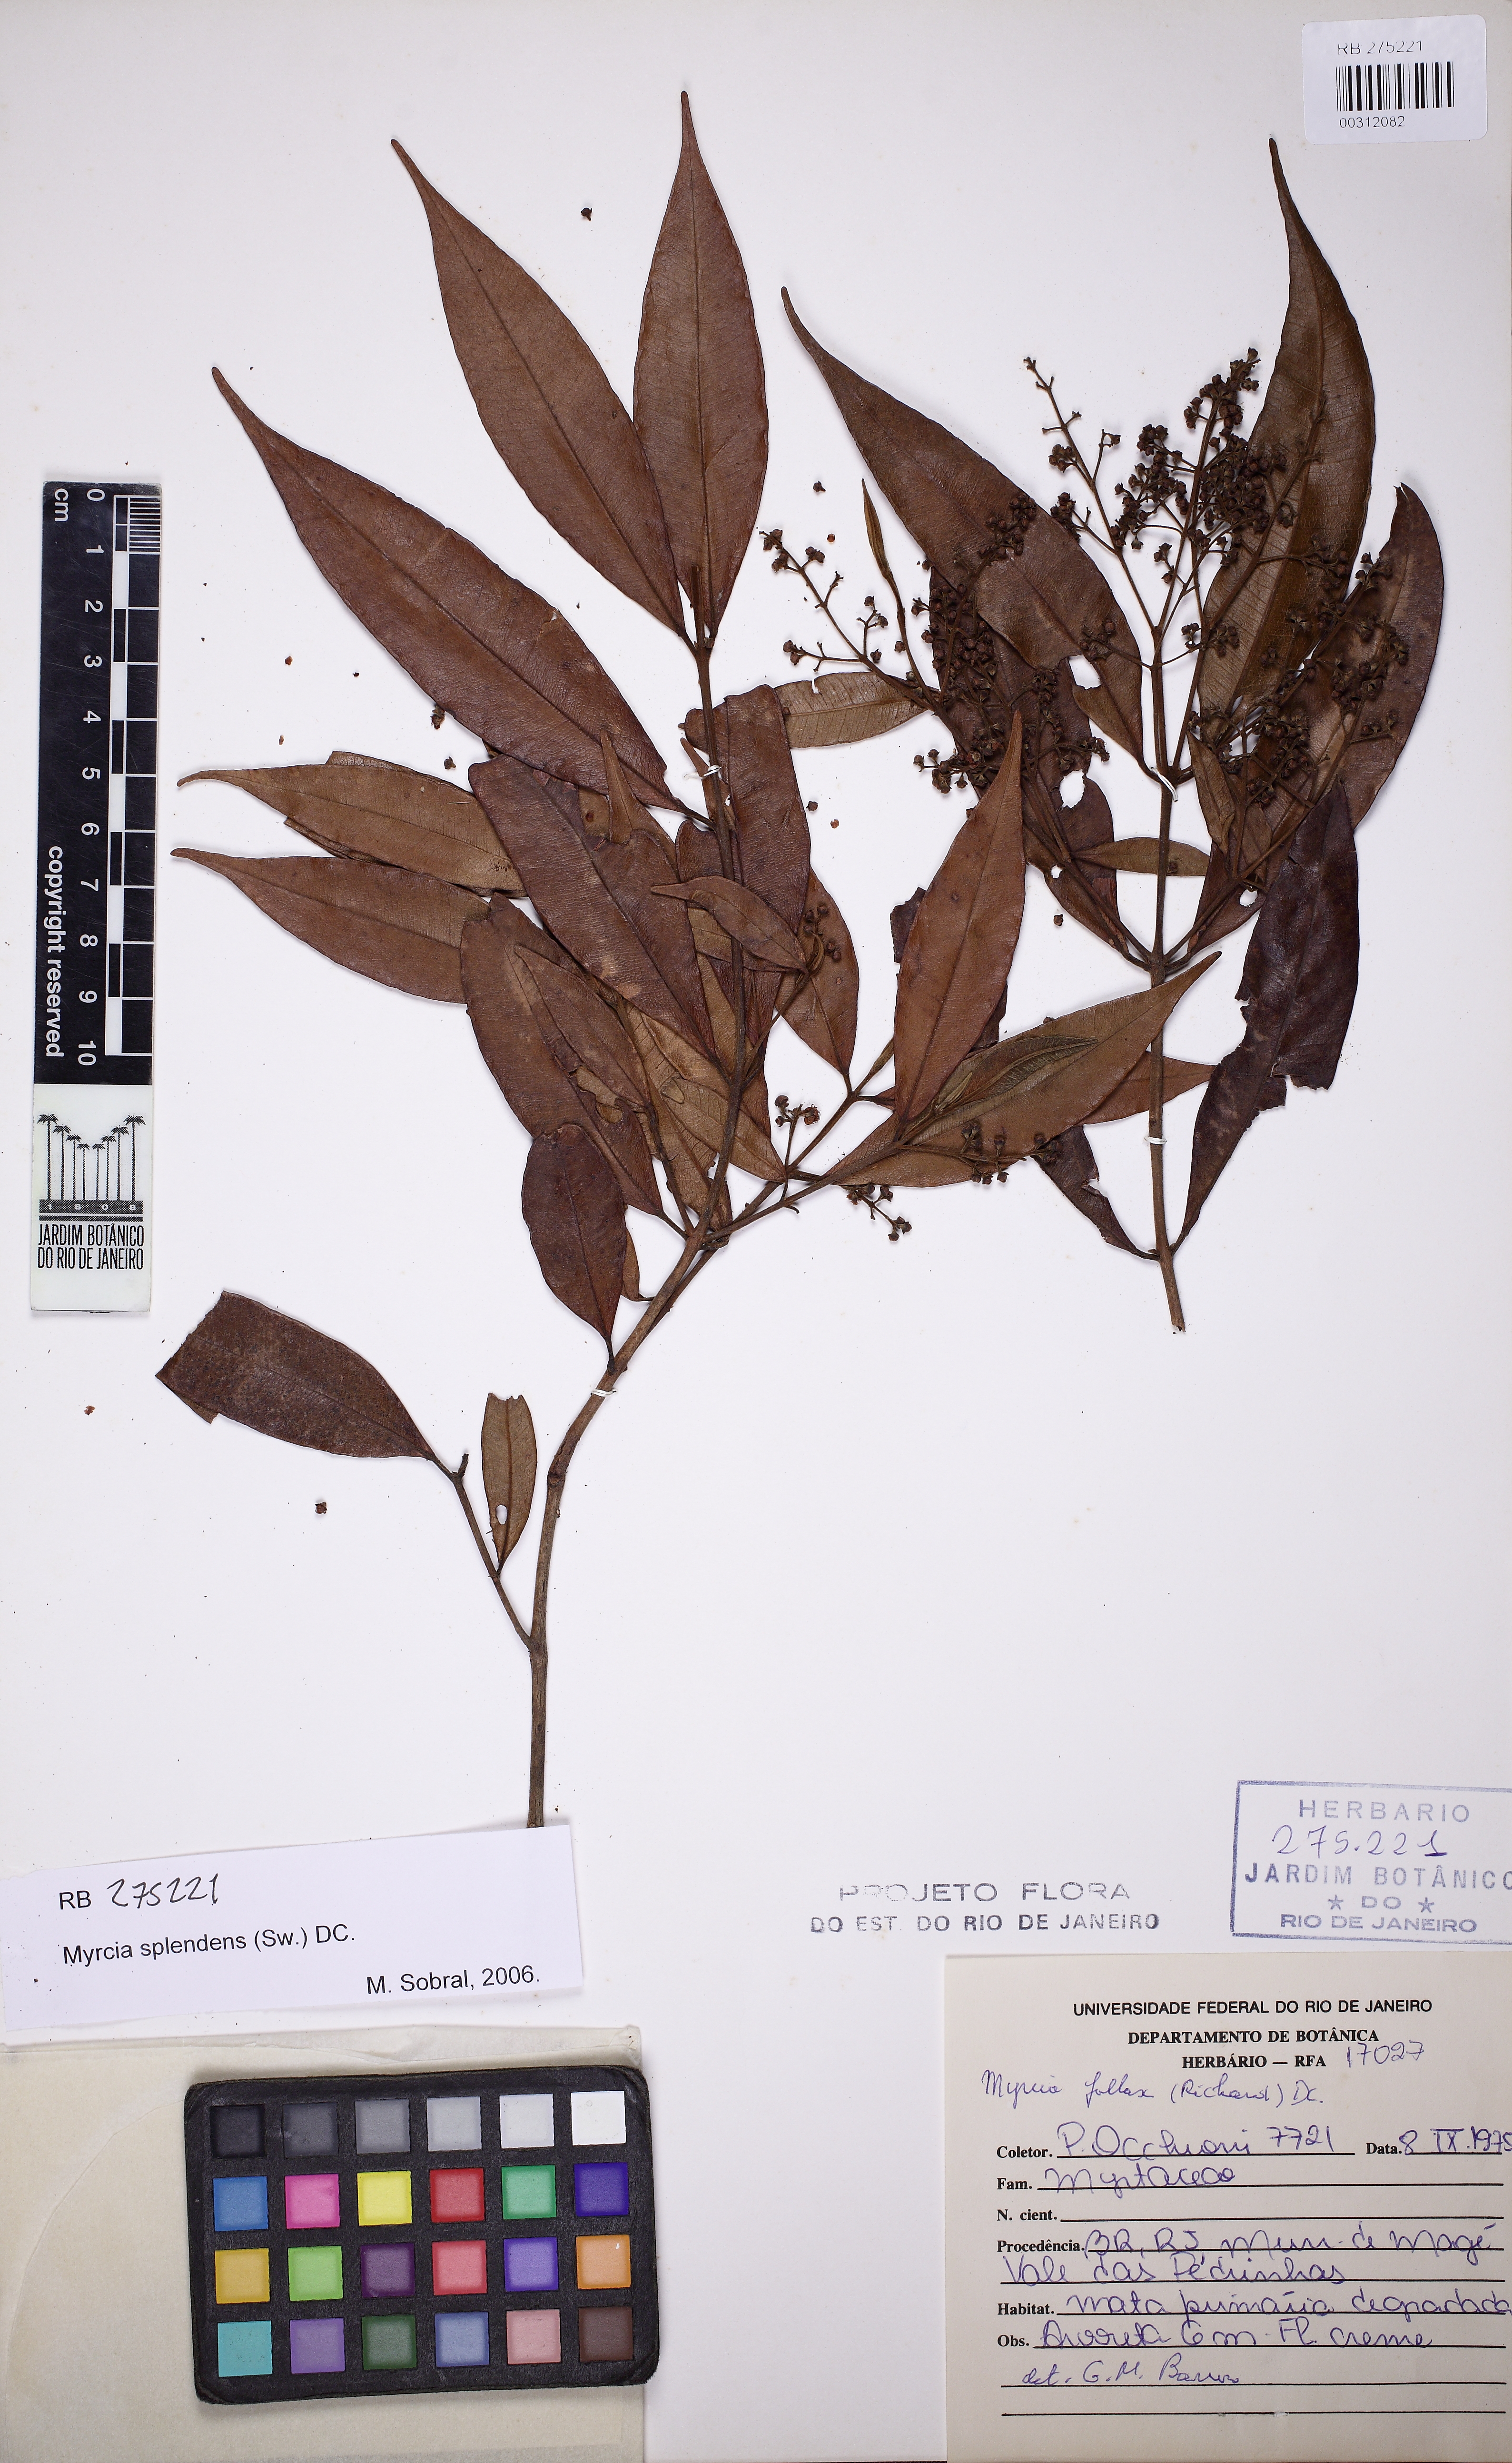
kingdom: Plantae
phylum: Tracheophyta
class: Magnoliopsida
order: Myrtales
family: Myrtaceae
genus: Myrcia
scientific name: Myrcia splendens
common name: Surinam cherry
